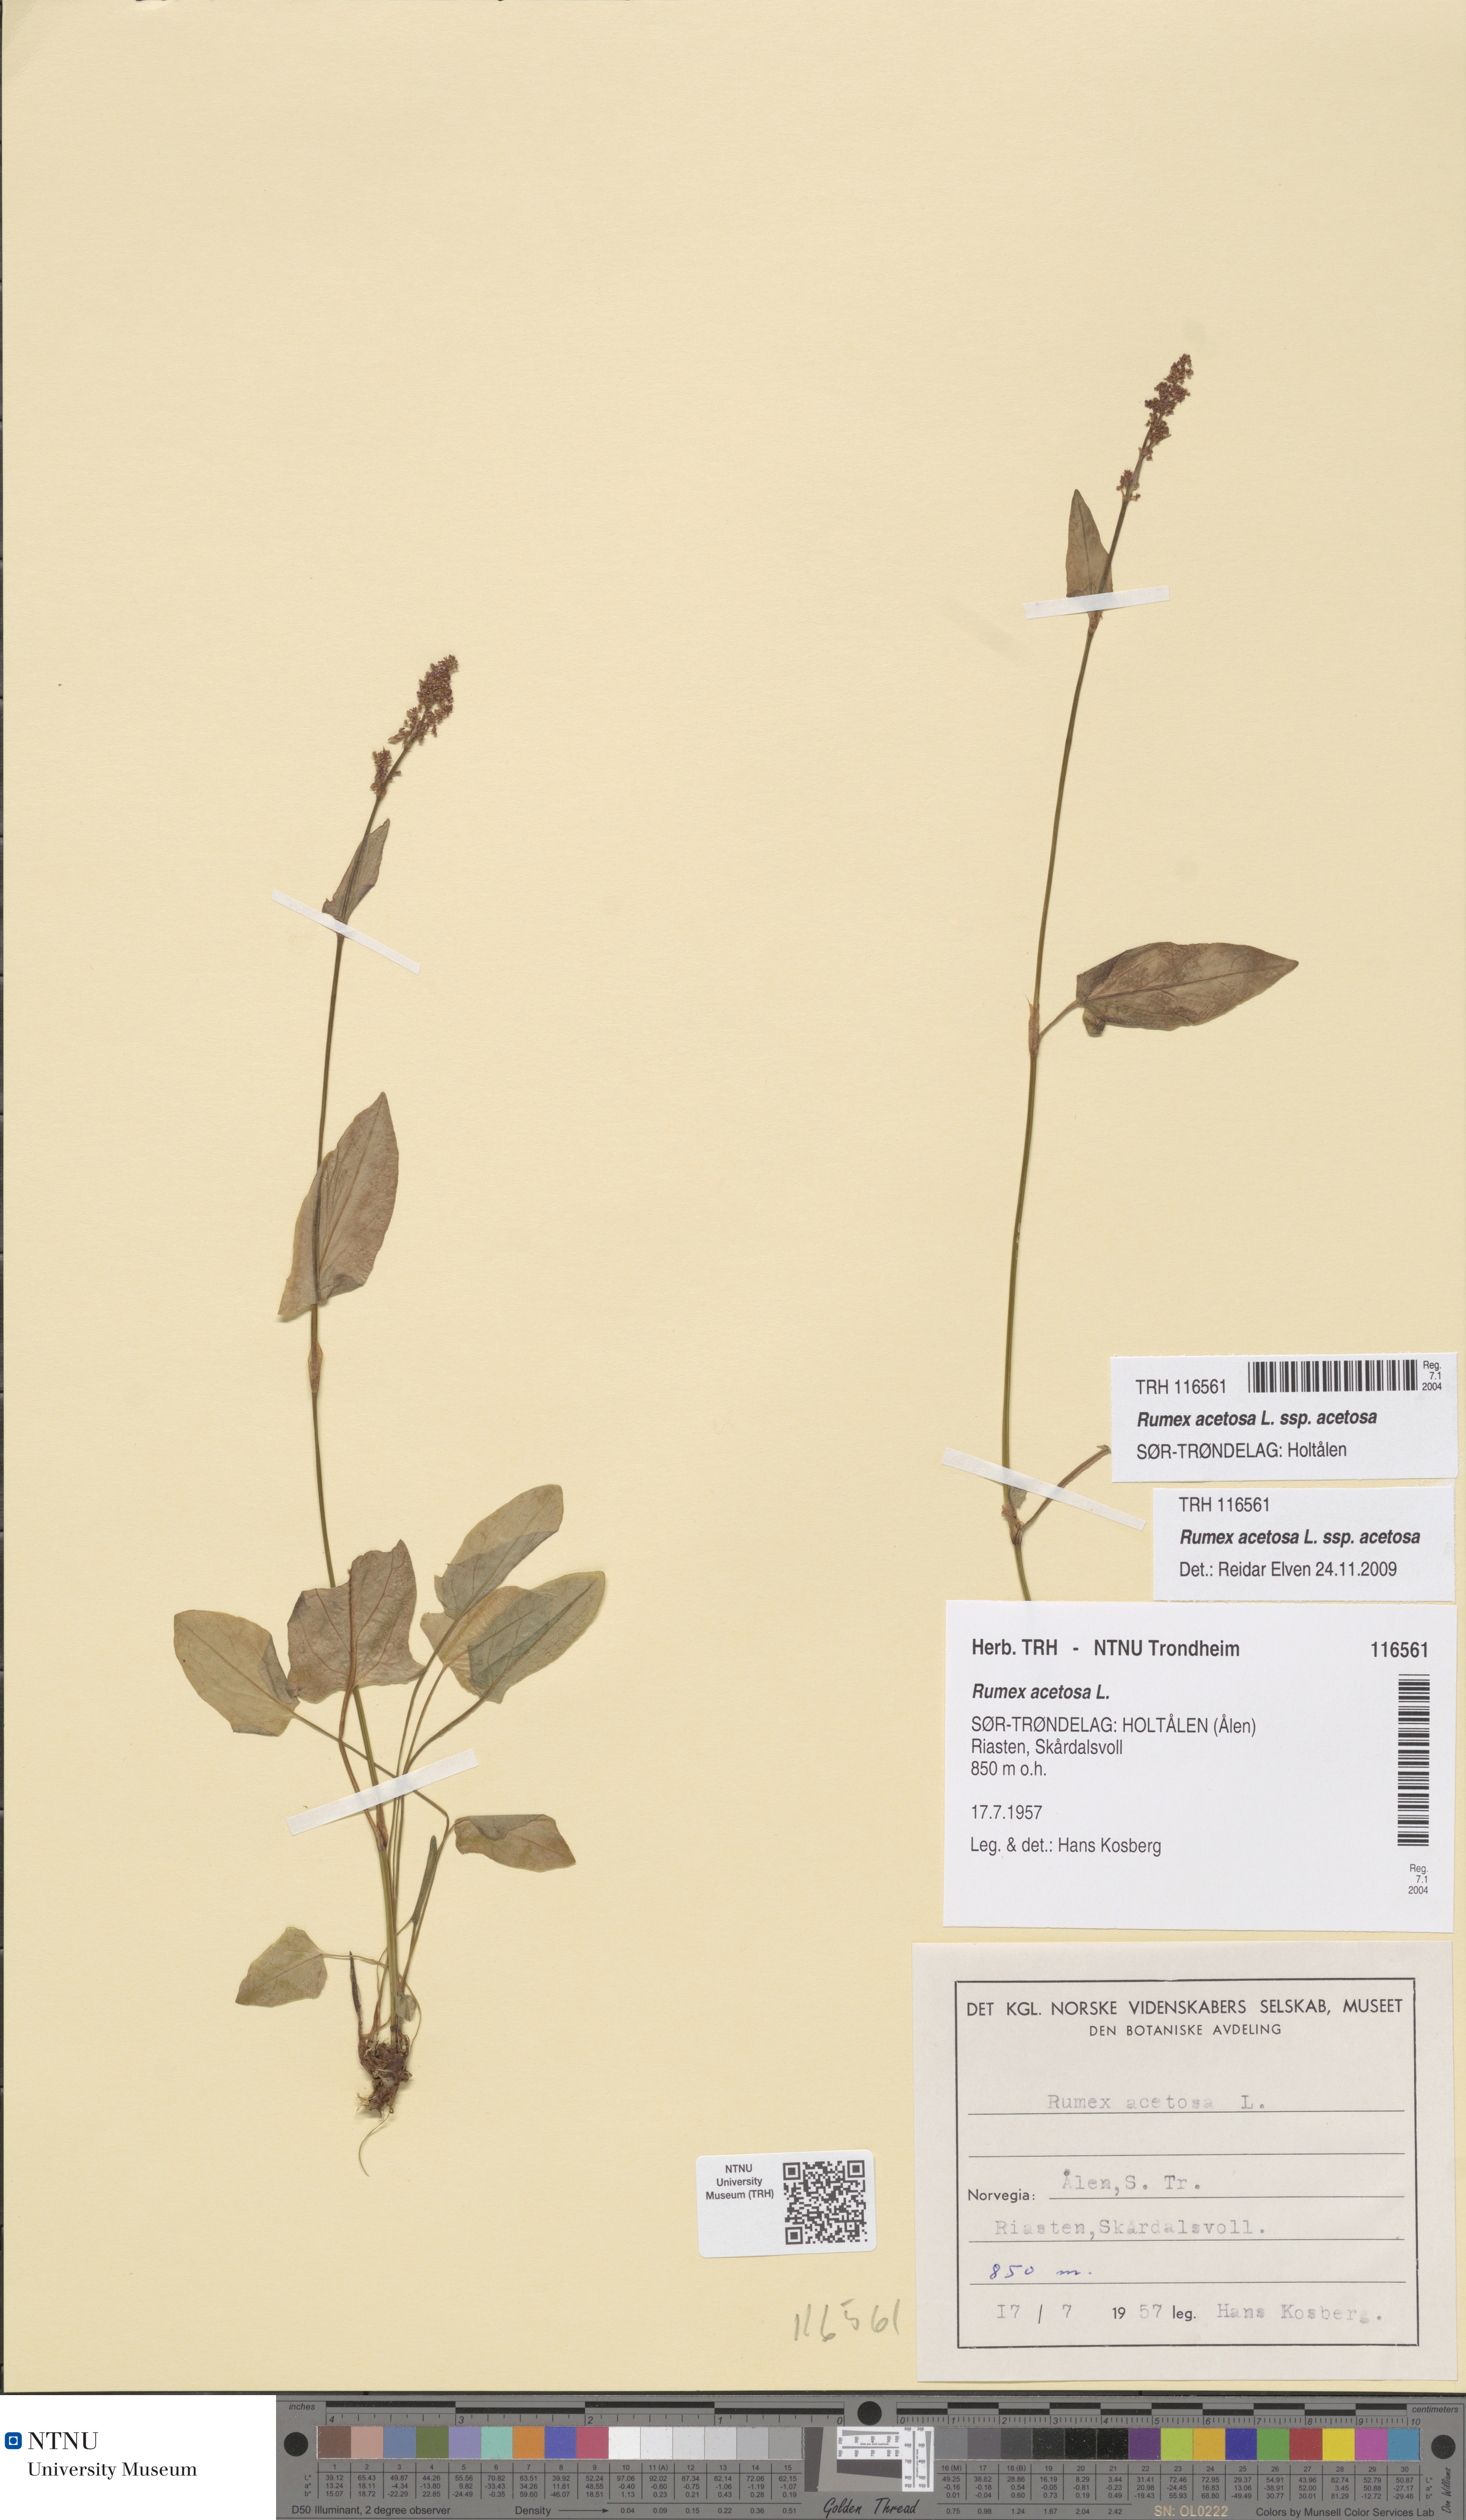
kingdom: Plantae
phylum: Tracheophyta
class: Magnoliopsida
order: Caryophyllales
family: Polygonaceae
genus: Rumex
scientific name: Rumex acetosa
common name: Garden sorrel
